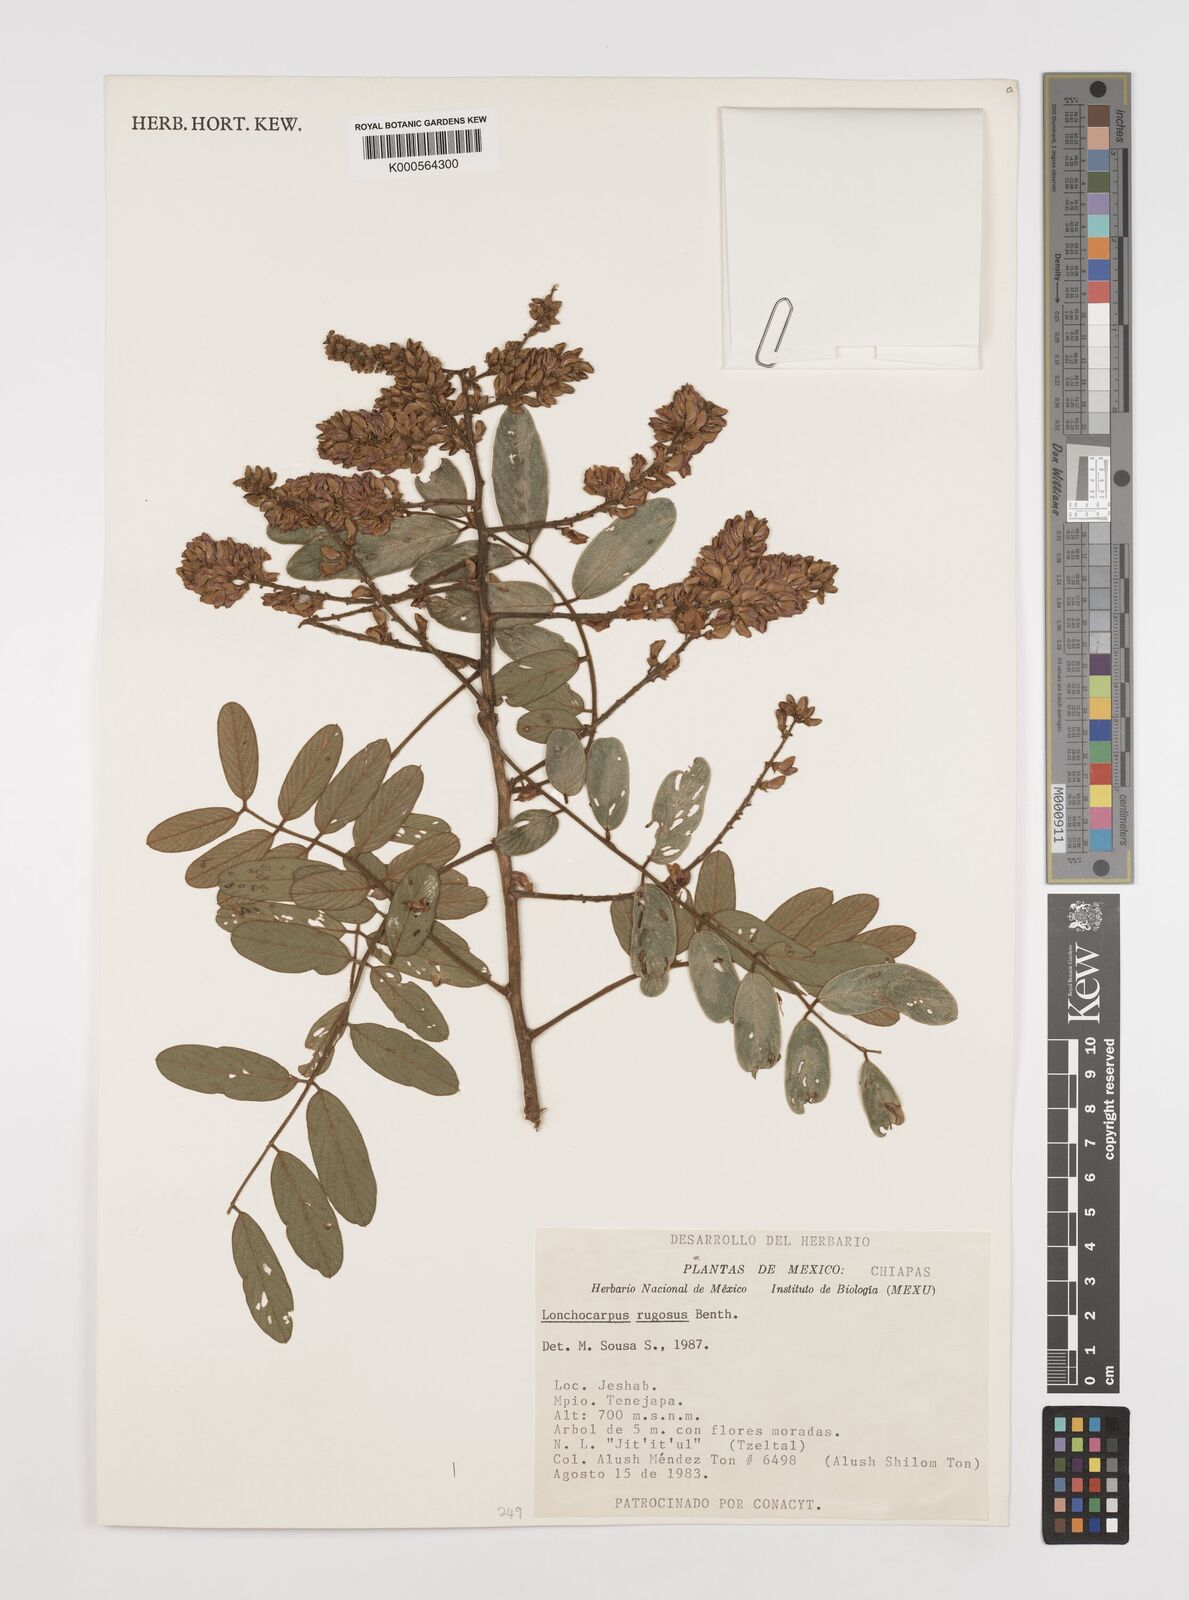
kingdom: Plantae
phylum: Tracheophyta
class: Magnoliopsida
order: Fabales
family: Fabaceae
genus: Lonchocarpus
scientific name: Lonchocarpus rugosus
